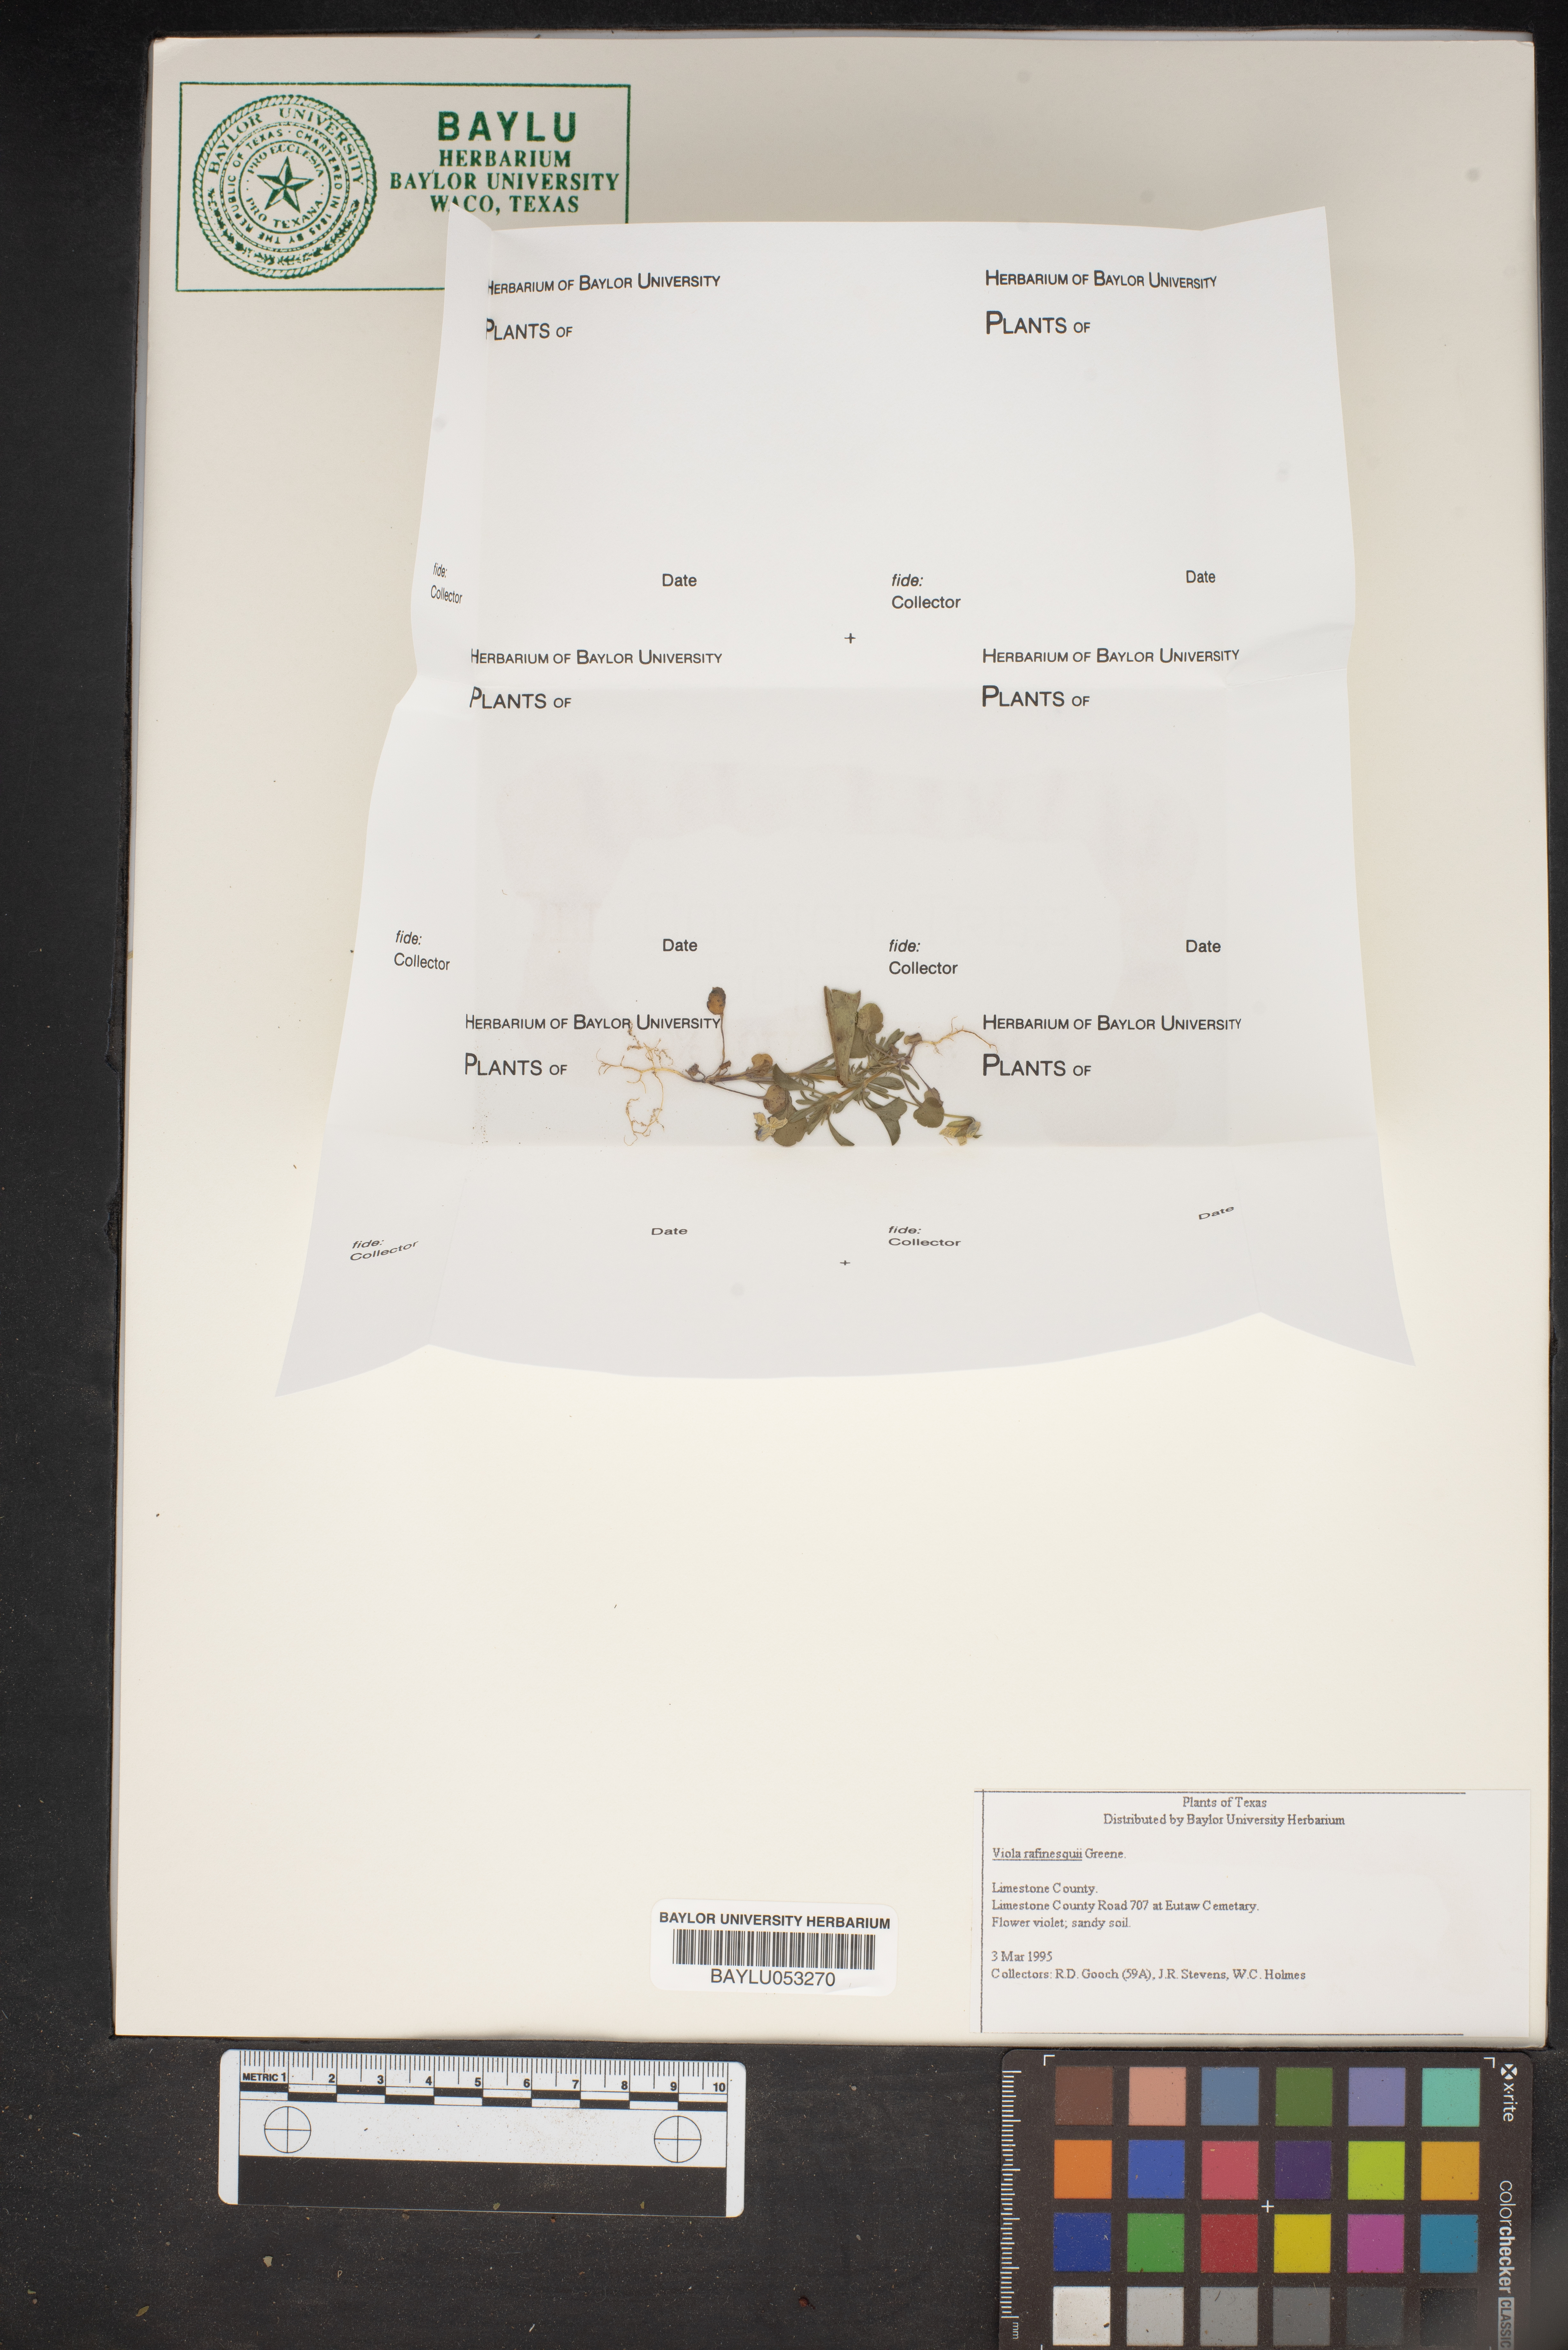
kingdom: Plantae
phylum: Tracheophyta
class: Magnoliopsida
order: Malpighiales
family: Violaceae
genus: Viola
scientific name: Viola rafinesquei
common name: American field pansy
